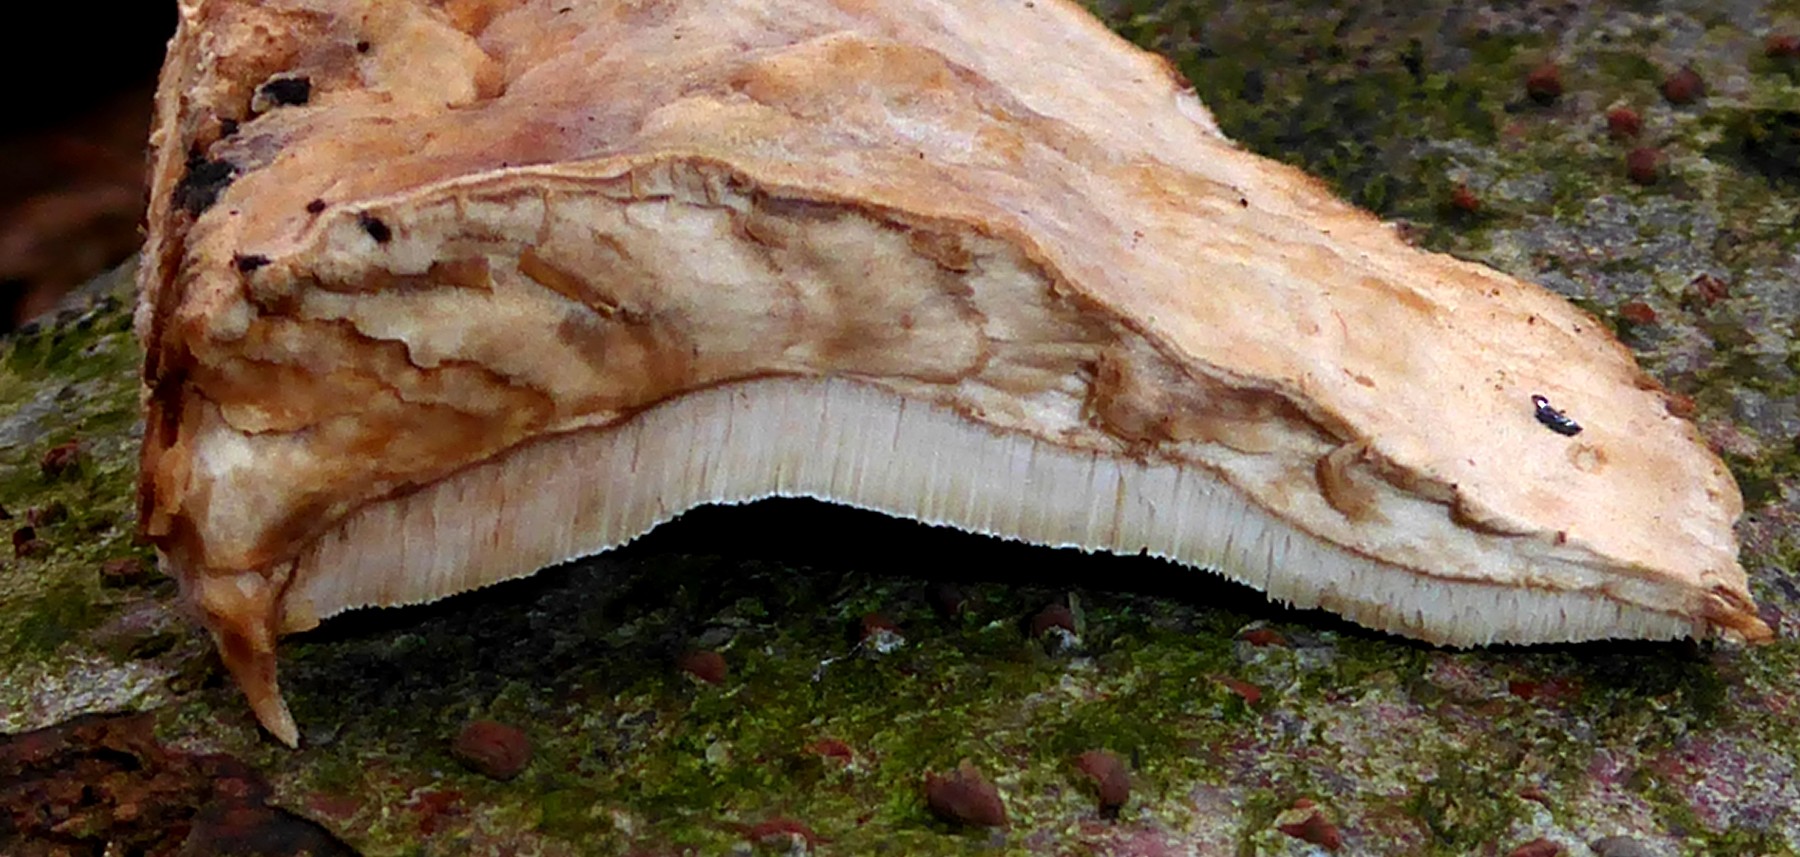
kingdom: Fungi
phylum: Basidiomycota
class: Agaricomycetes
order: Polyporales
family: Phanerochaetaceae
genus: Bjerkandera
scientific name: Bjerkandera fumosa
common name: grågul sodporesvamp
